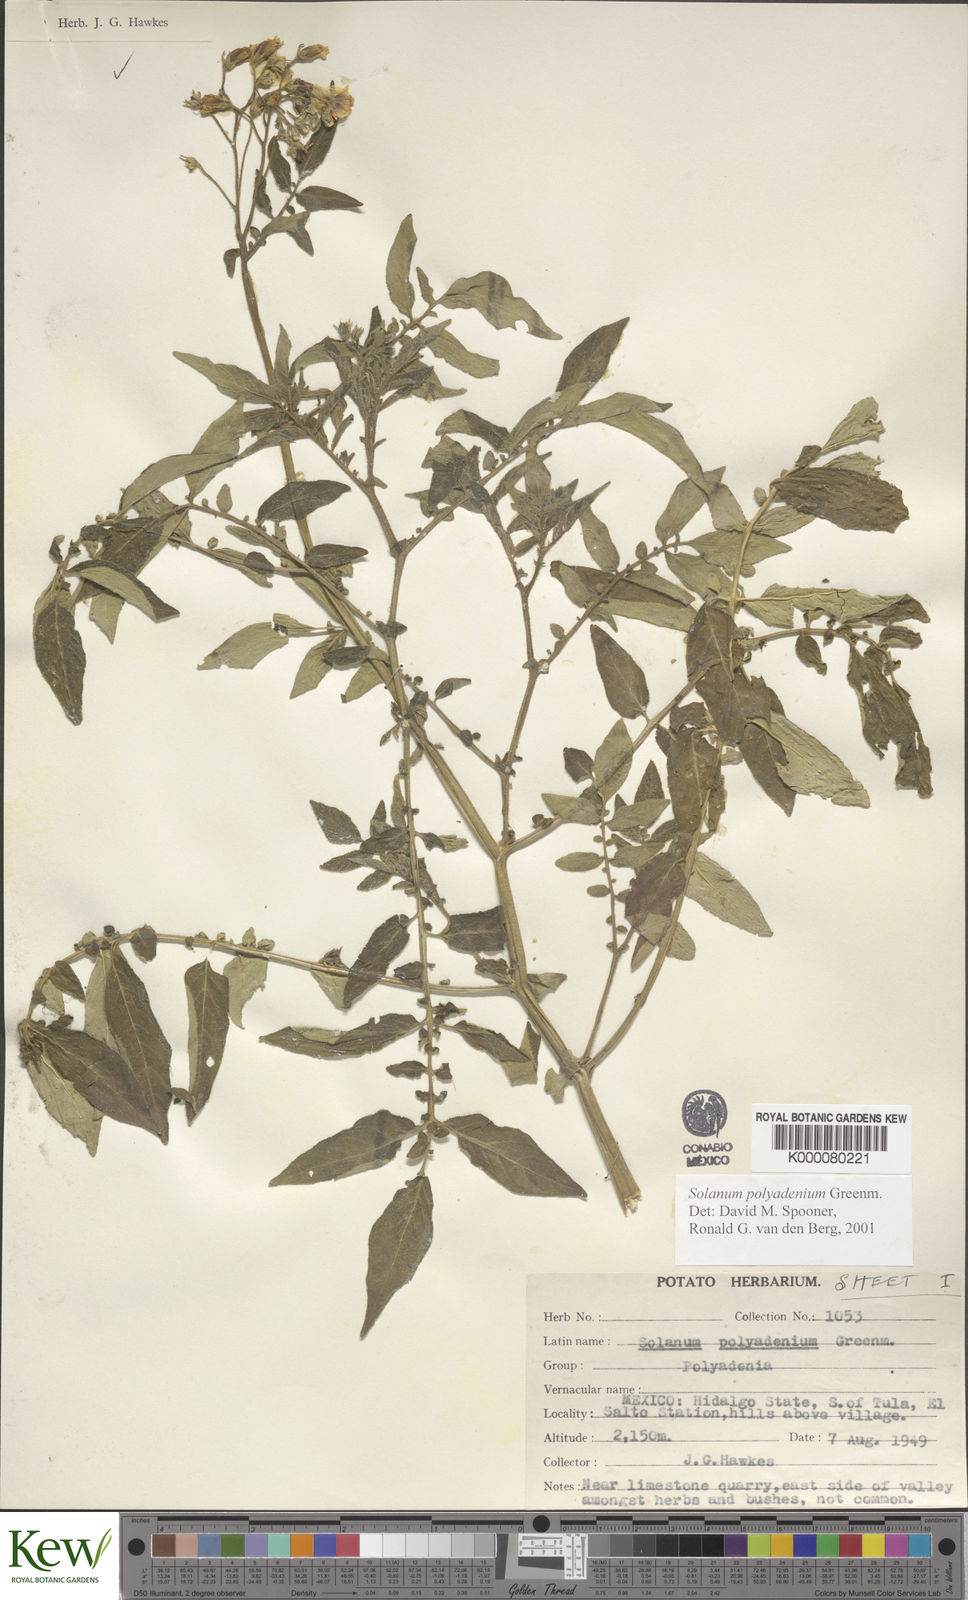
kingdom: Plantae
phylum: Tracheophyta
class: Magnoliopsida
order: Solanales
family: Solanaceae
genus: Solanum
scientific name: Solanum polyadenium
